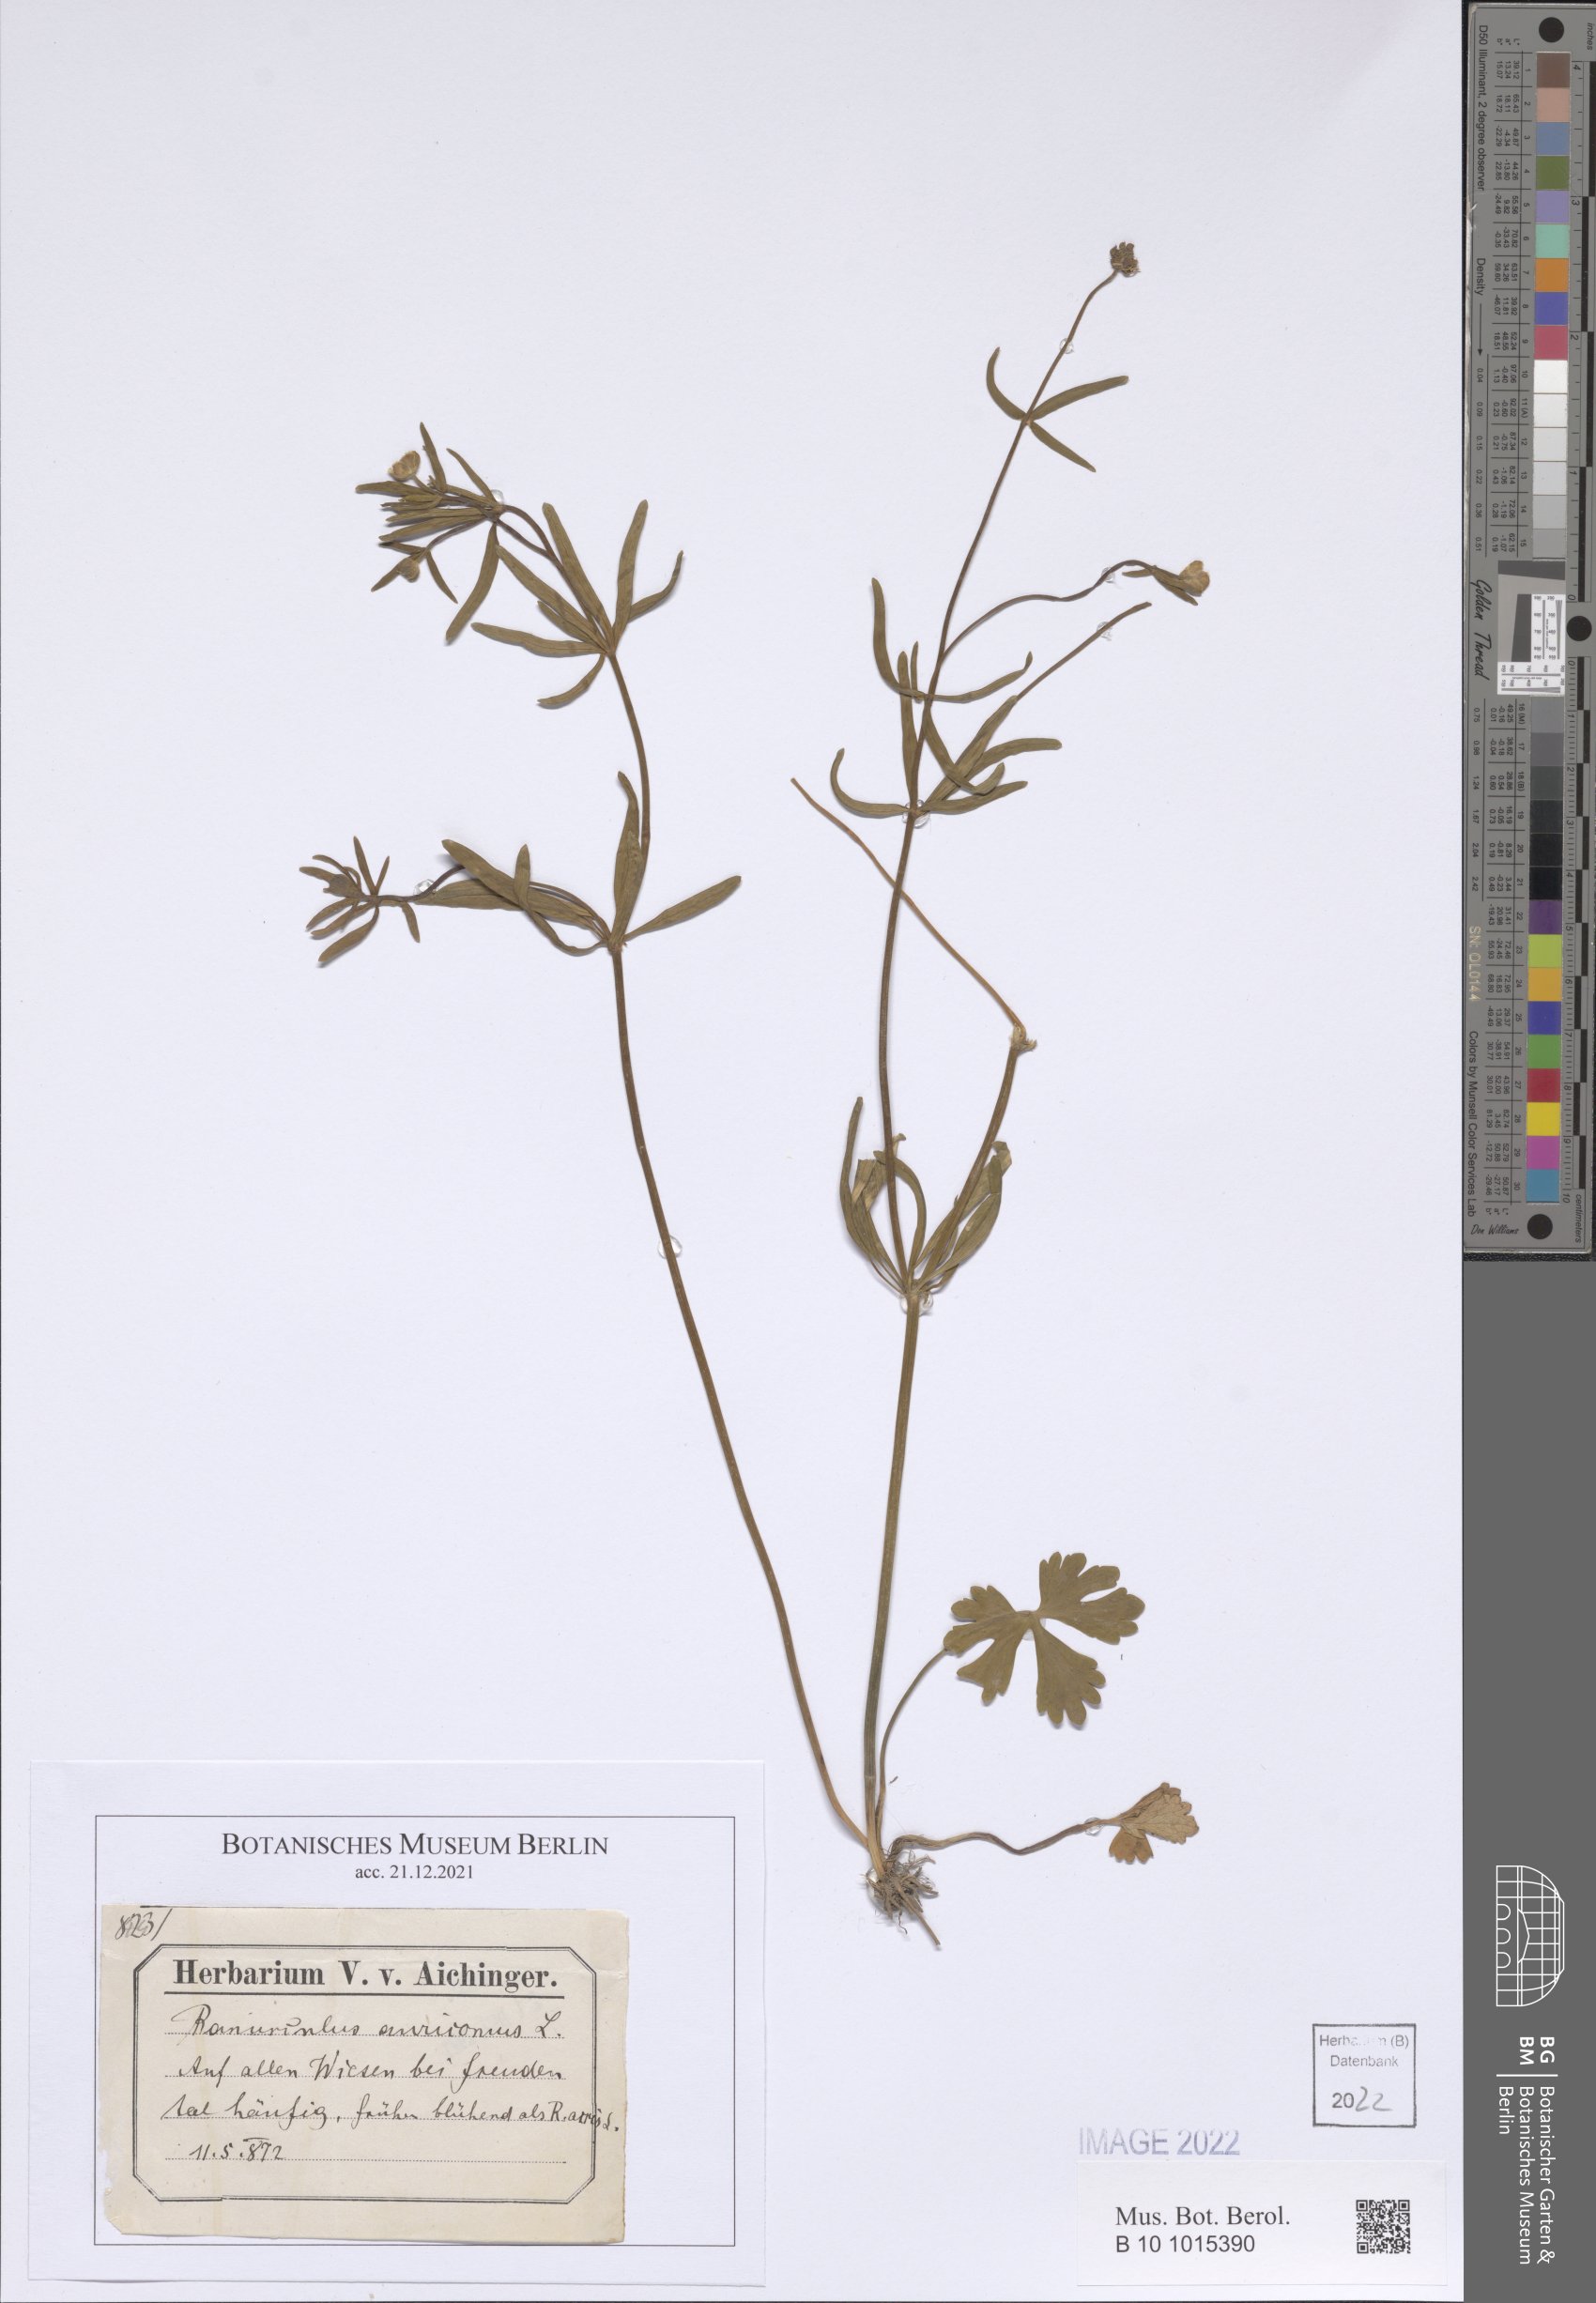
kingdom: Plantae
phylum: Tracheophyta
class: Magnoliopsida
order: Ranunculales
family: Ranunculaceae
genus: Ranunculus
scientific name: Ranunculus auricomus
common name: Goldilocks buttercup
